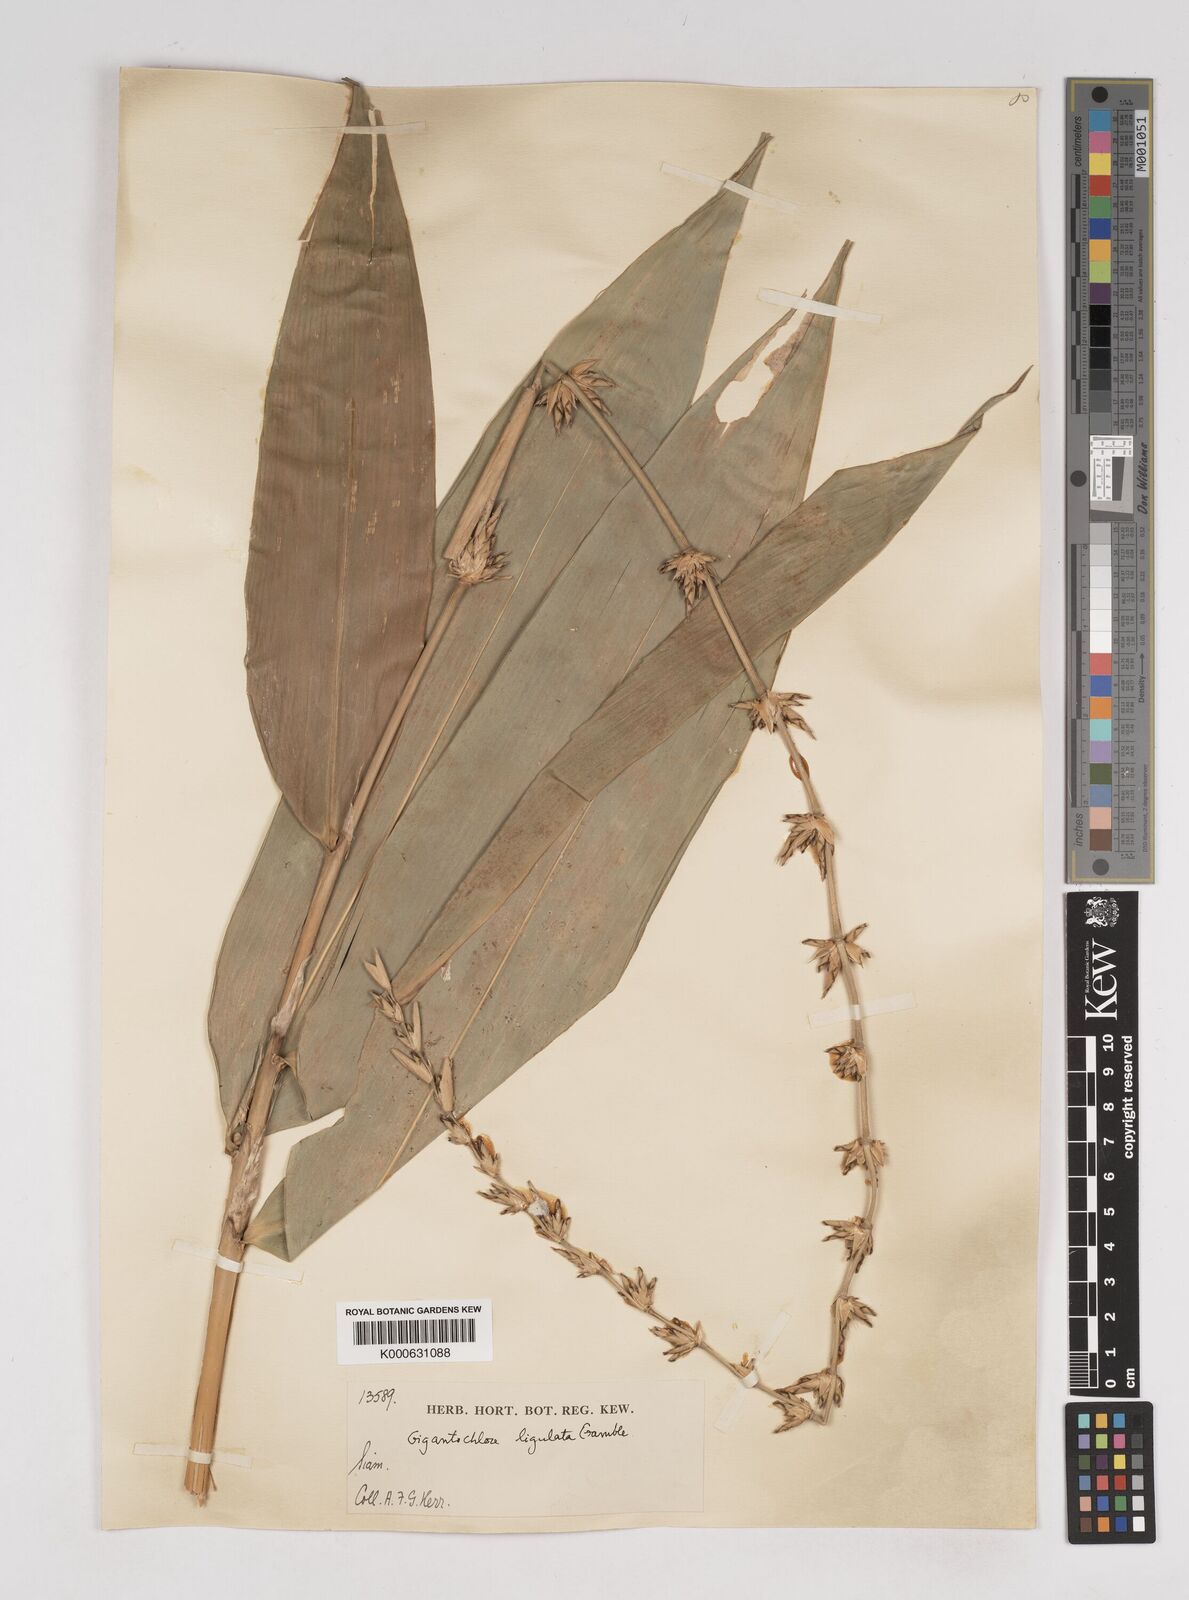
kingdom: Plantae
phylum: Tracheophyta
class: Liliopsida
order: Poales
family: Poaceae
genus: Gigantochloa
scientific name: Gigantochloa ligulata
